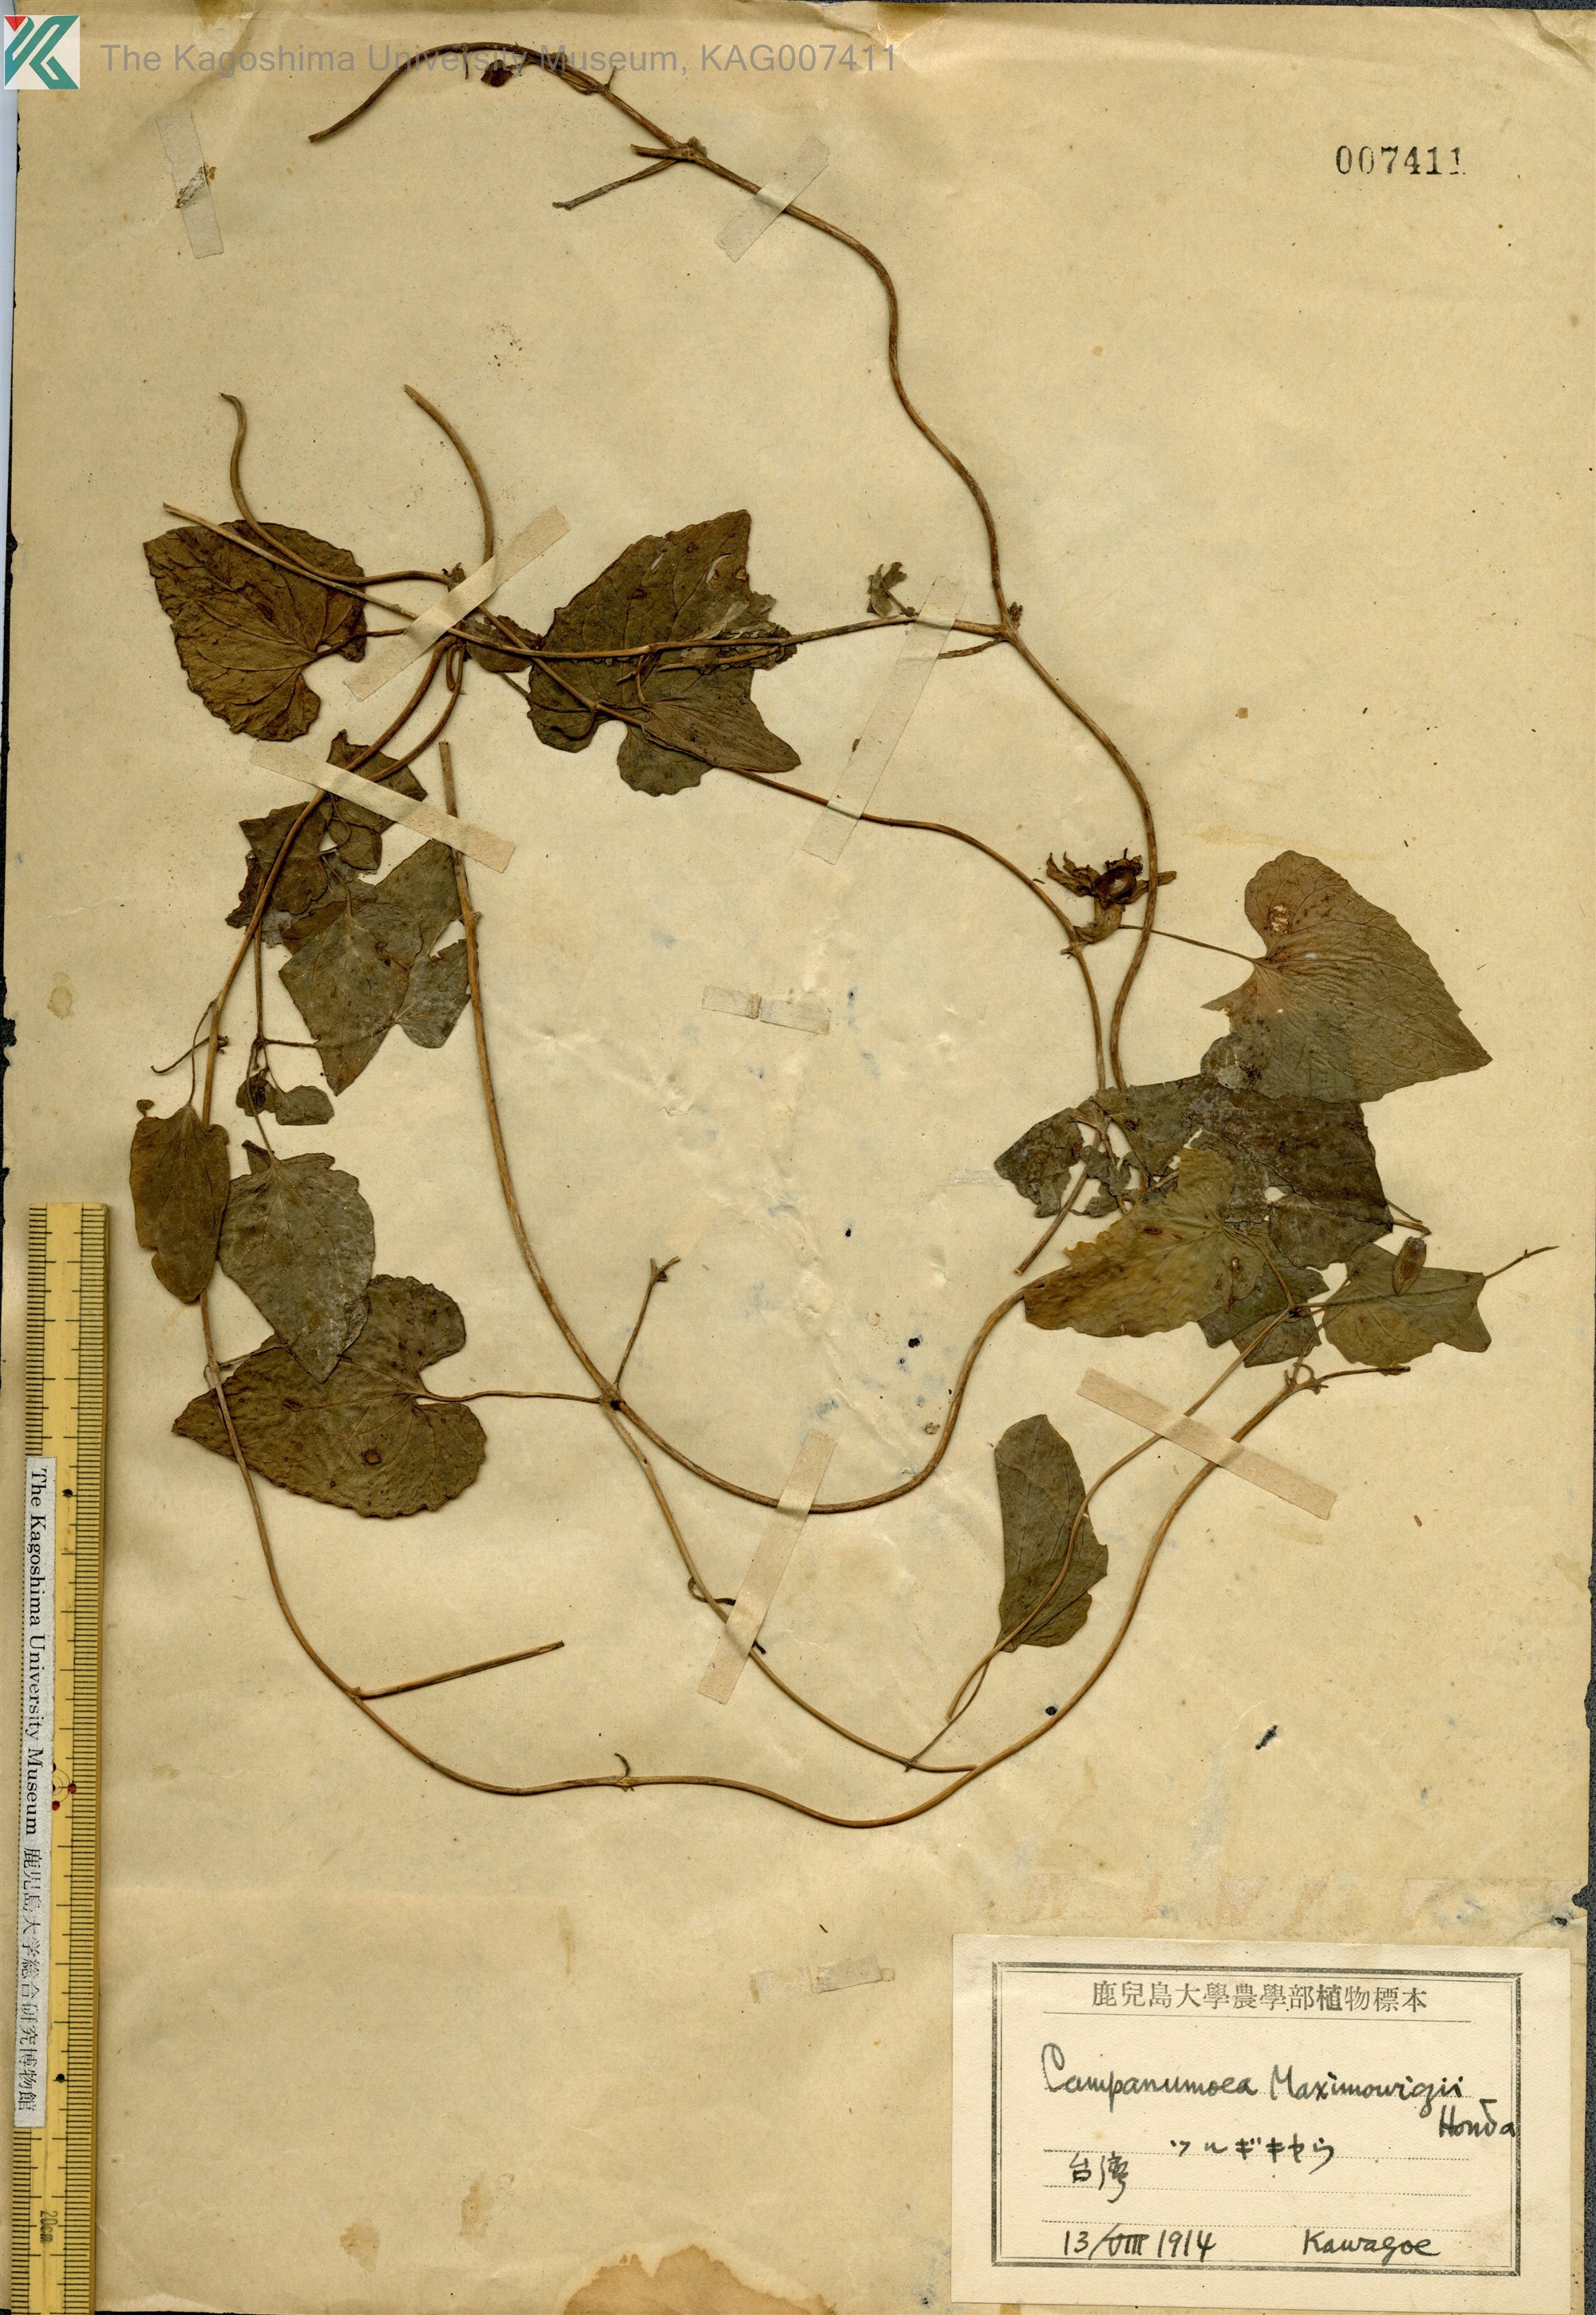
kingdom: Plantae
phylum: Tracheophyta
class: Magnoliopsida
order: Asterales
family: Campanulaceae
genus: Codonopsis
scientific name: Codonopsis javanica
